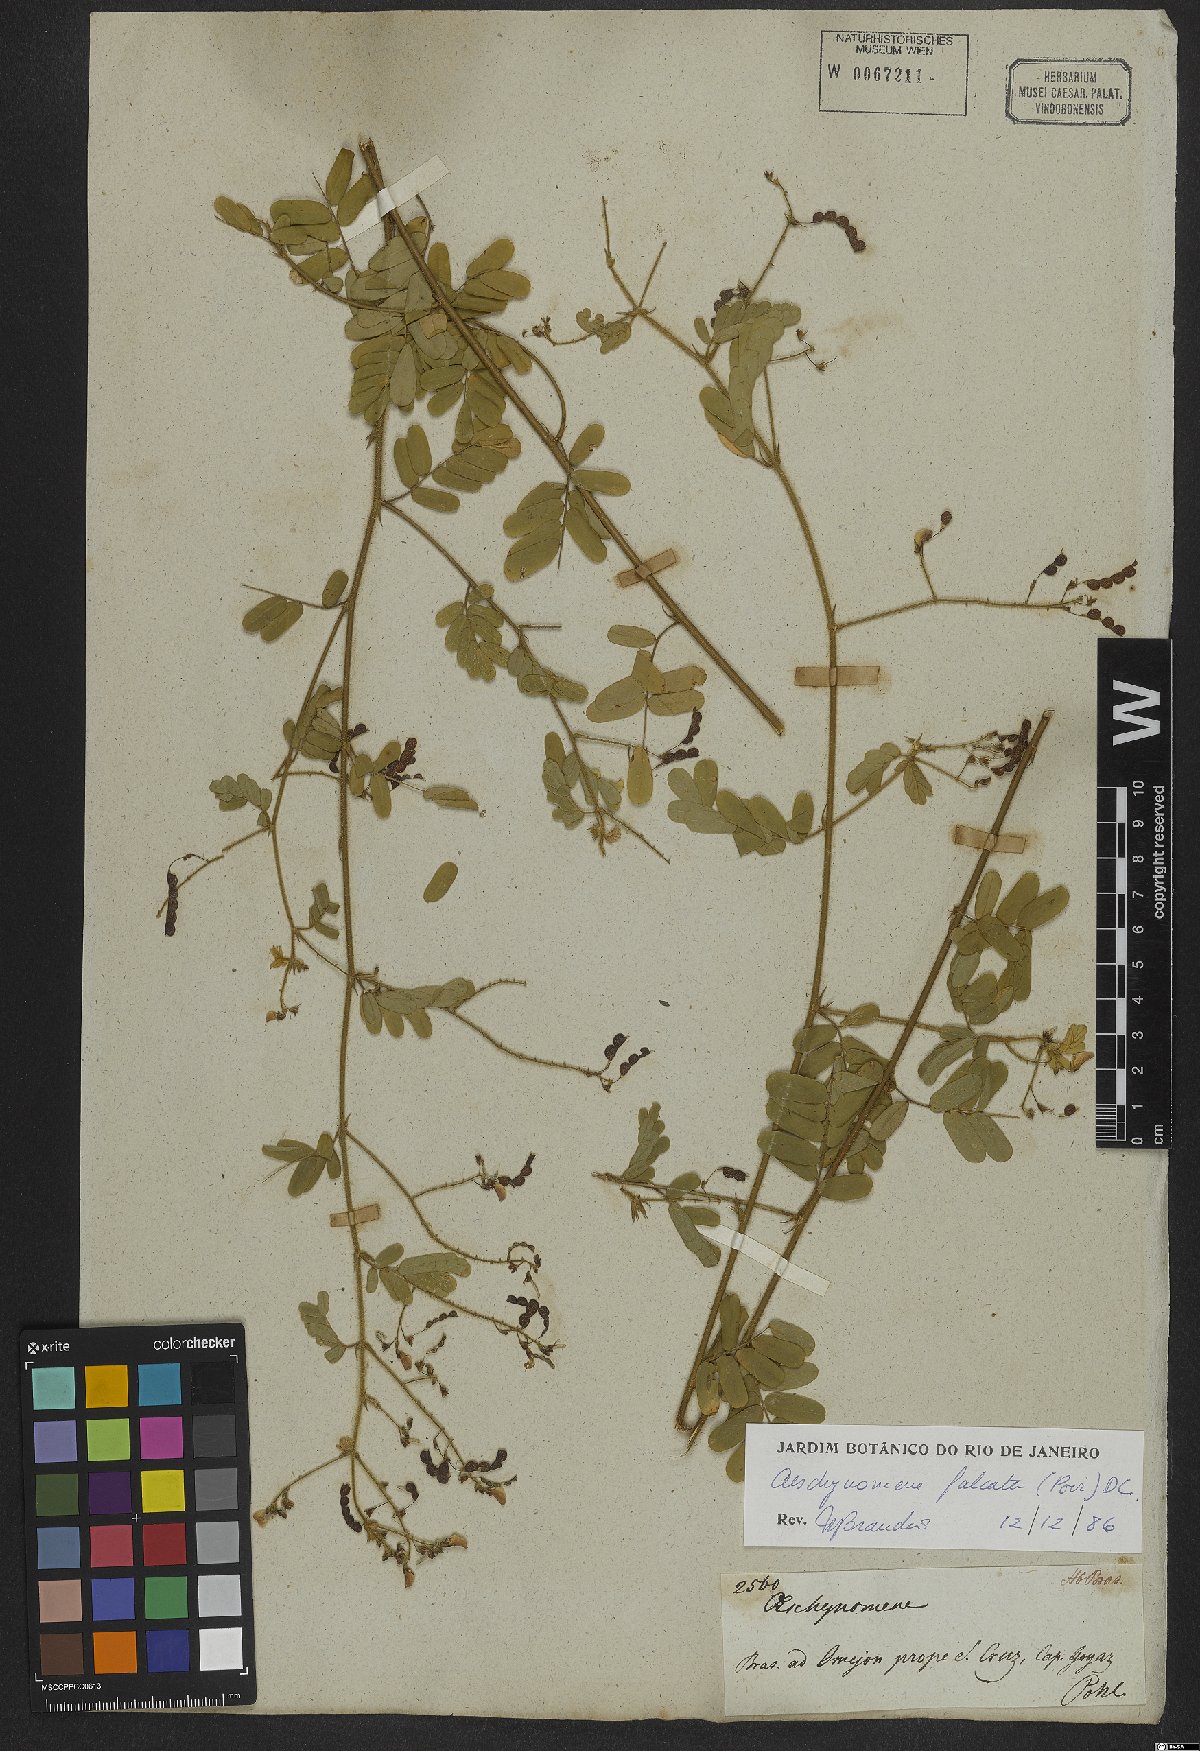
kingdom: Plantae
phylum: Tracheophyta
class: Magnoliopsida
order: Fabales
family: Fabaceae
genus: Ctenodon
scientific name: Ctenodon falcatus
